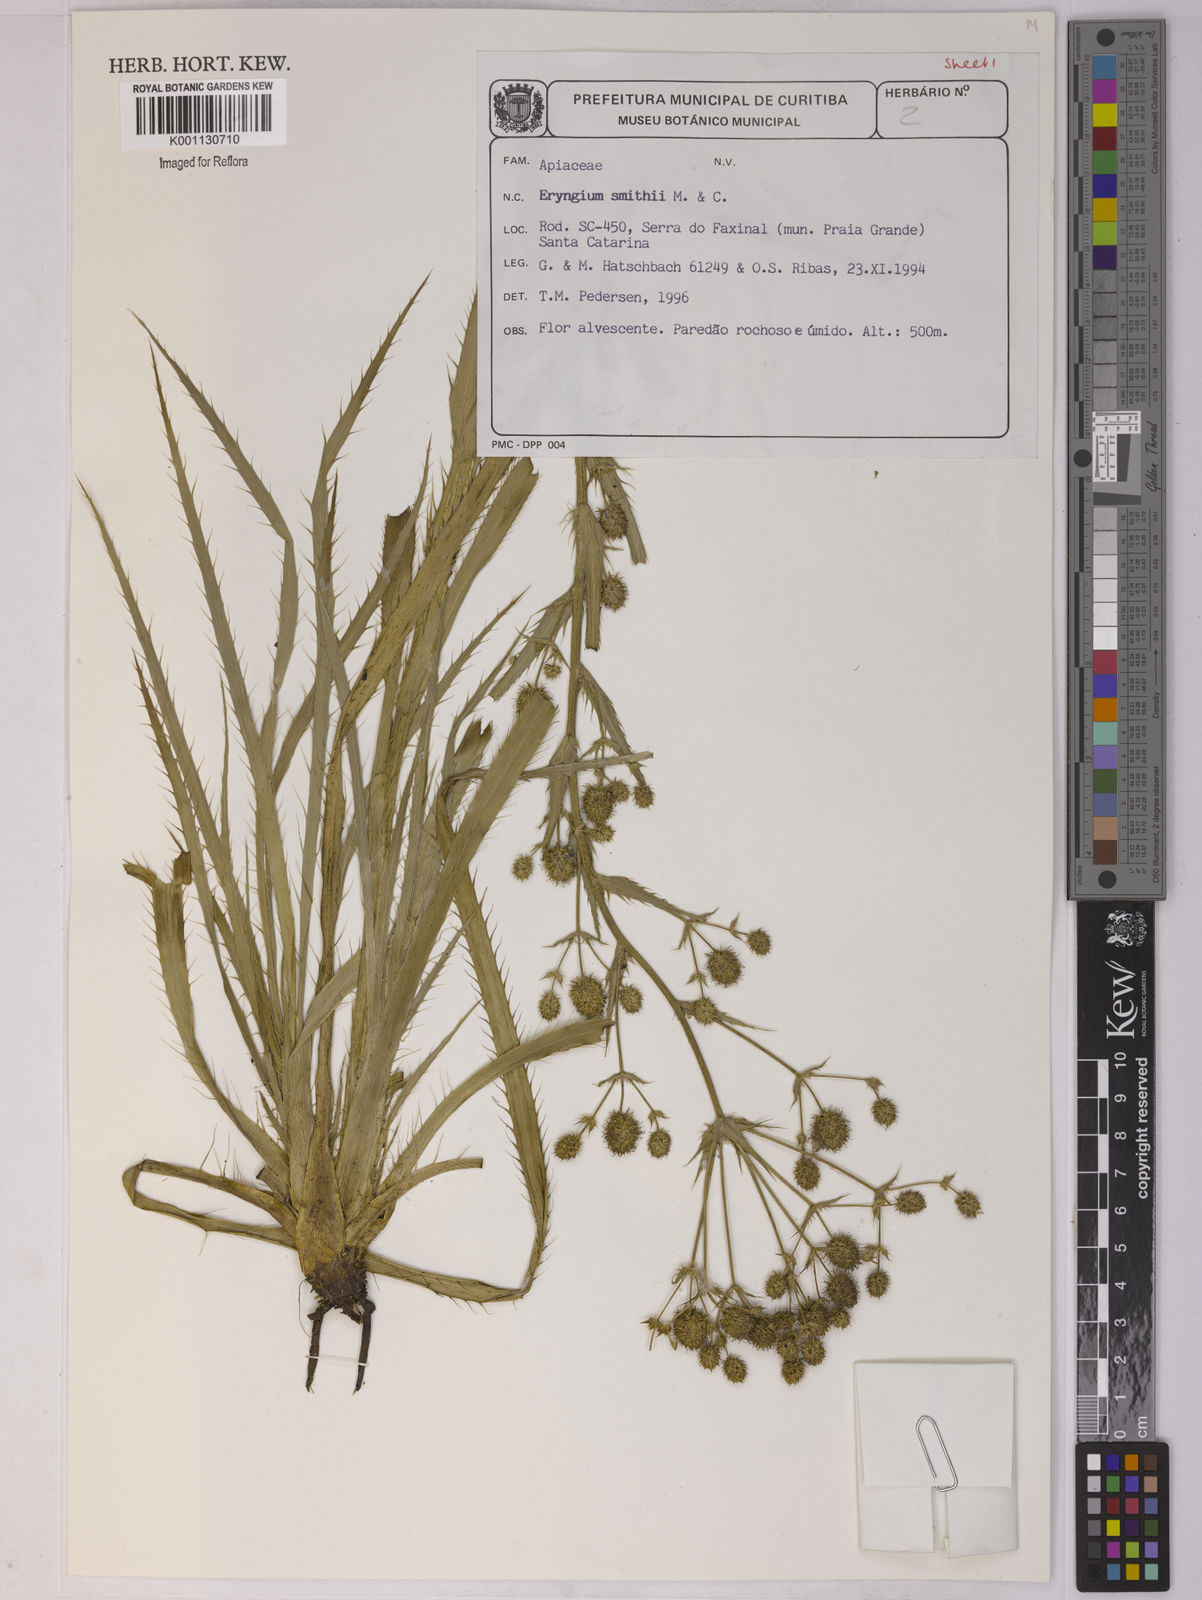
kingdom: Plantae
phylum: Tracheophyta
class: Magnoliopsida
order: Apiales
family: Apiaceae
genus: Eryngium
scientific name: Eryngium smithii
